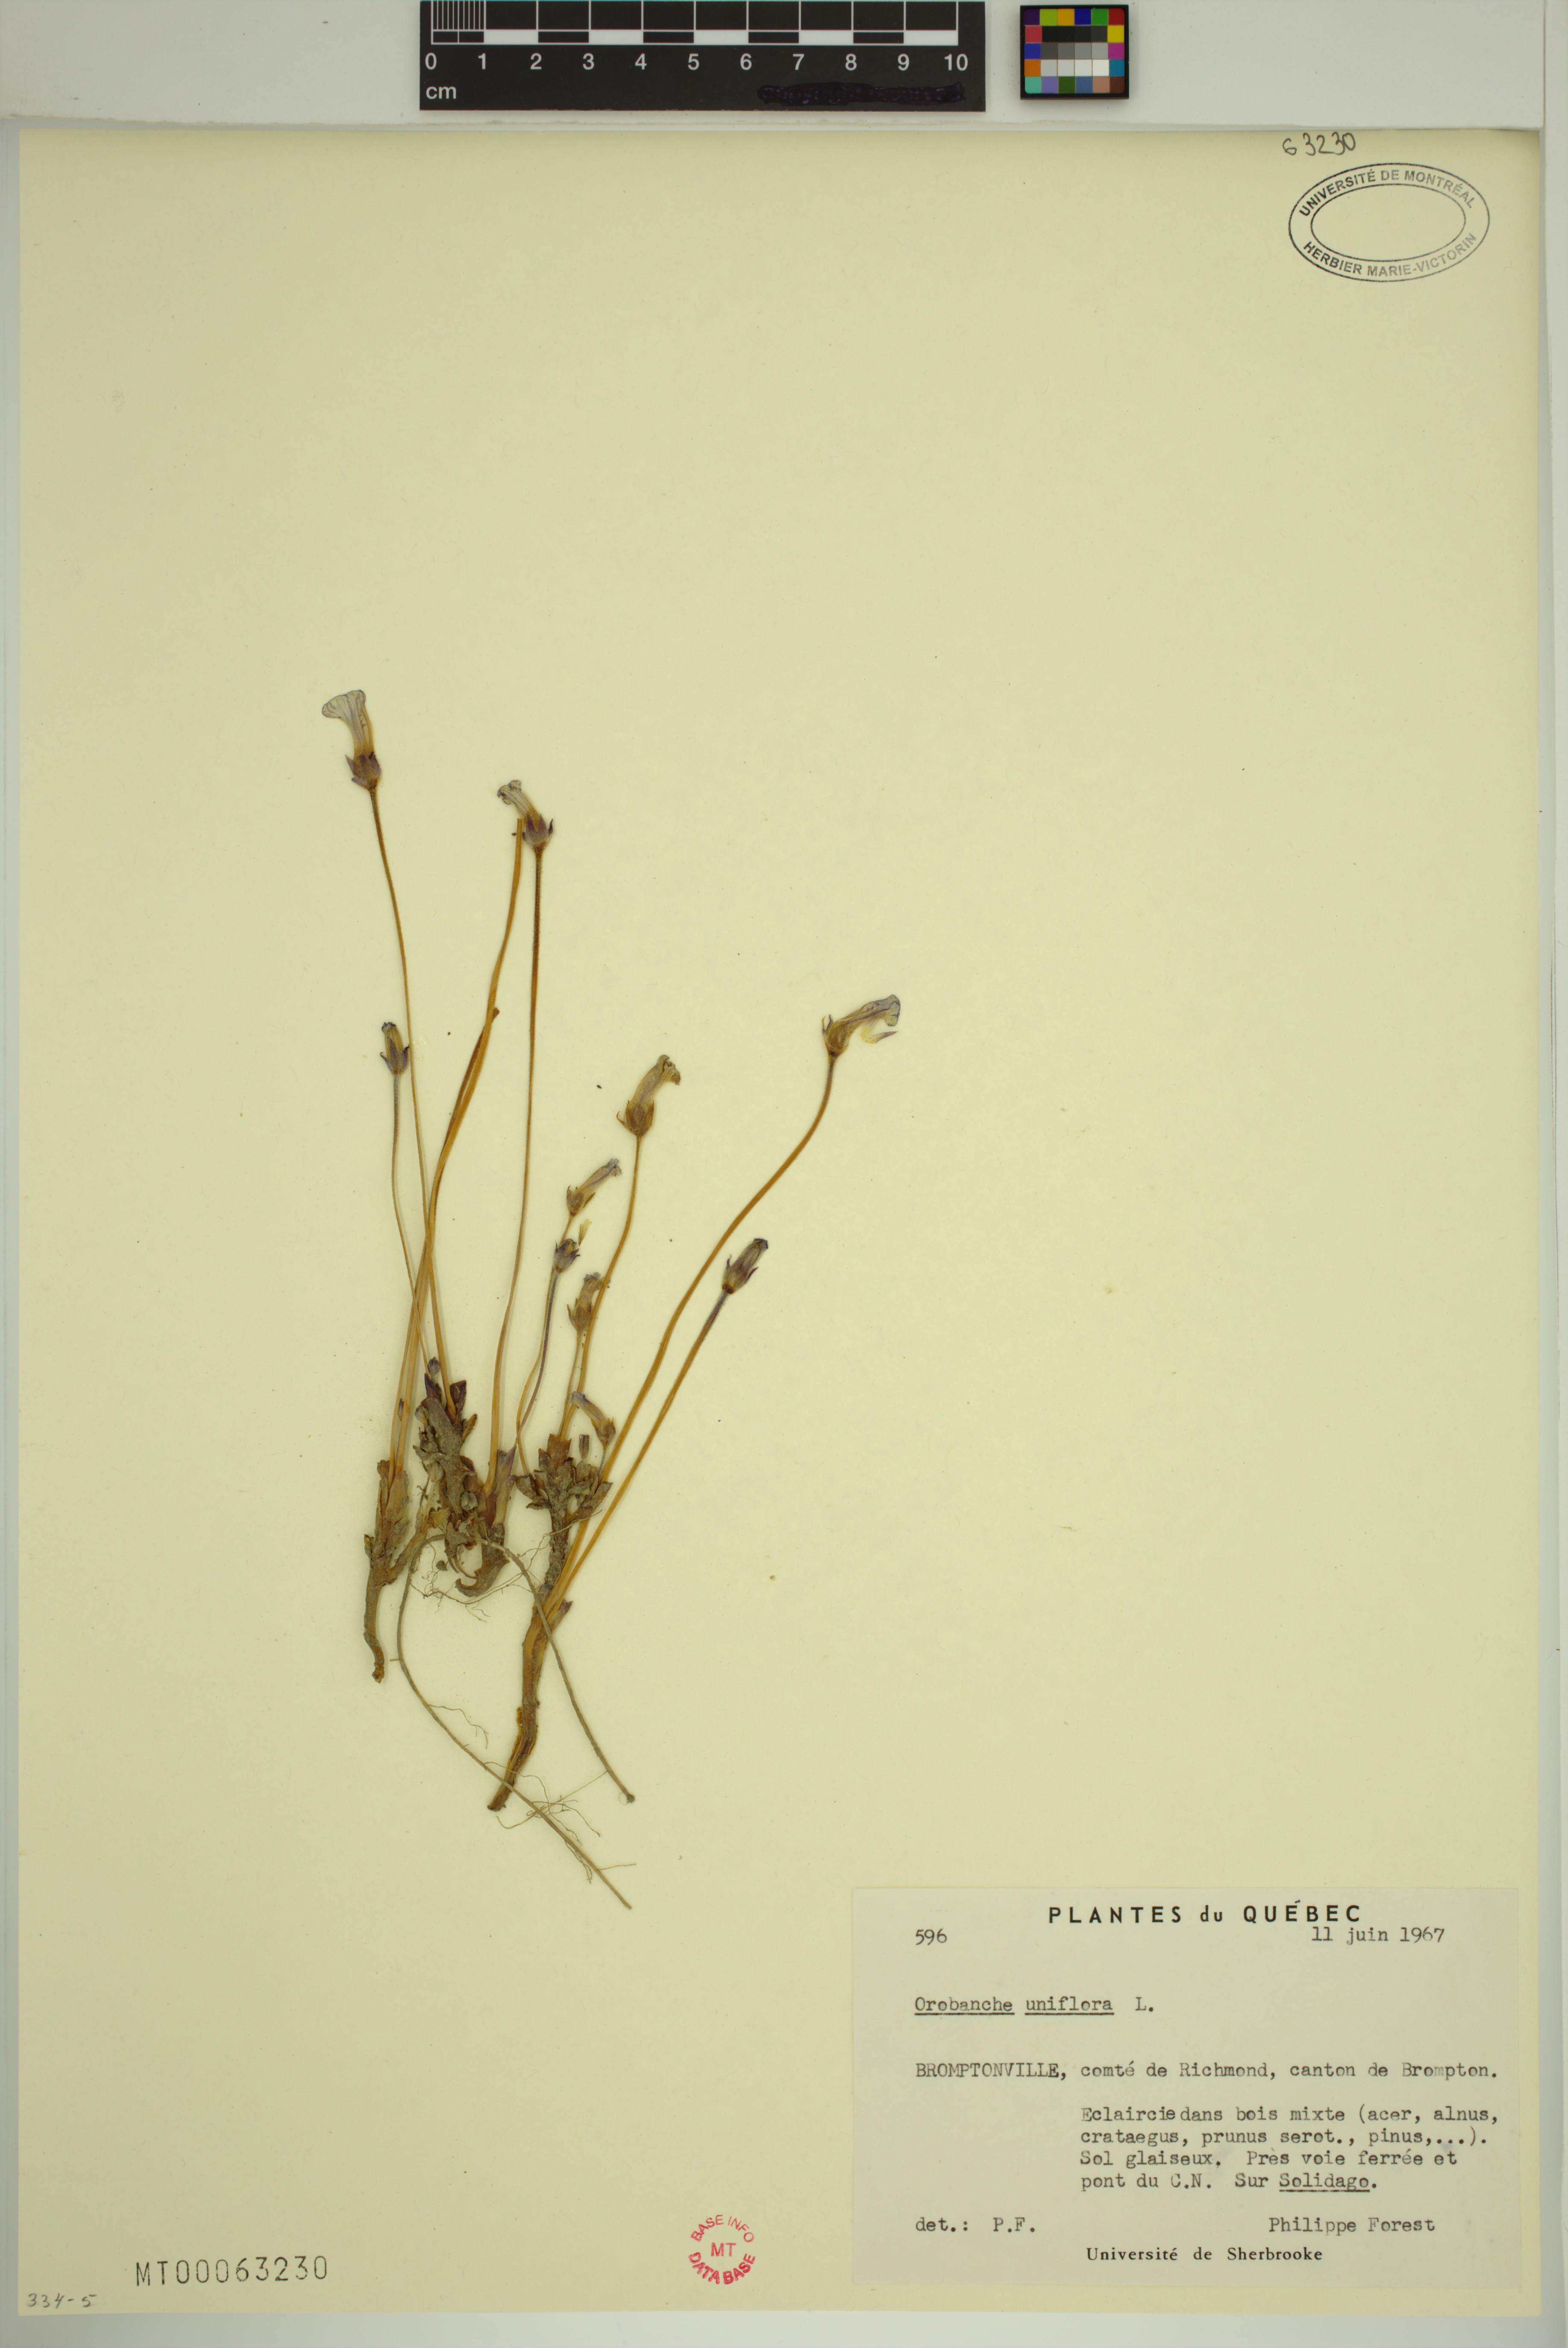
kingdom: Plantae
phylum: Tracheophyta
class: Magnoliopsida
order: Lamiales
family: Orobanchaceae
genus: Aphyllon
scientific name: Aphyllon uniflorum
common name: One-flowered broomrape
